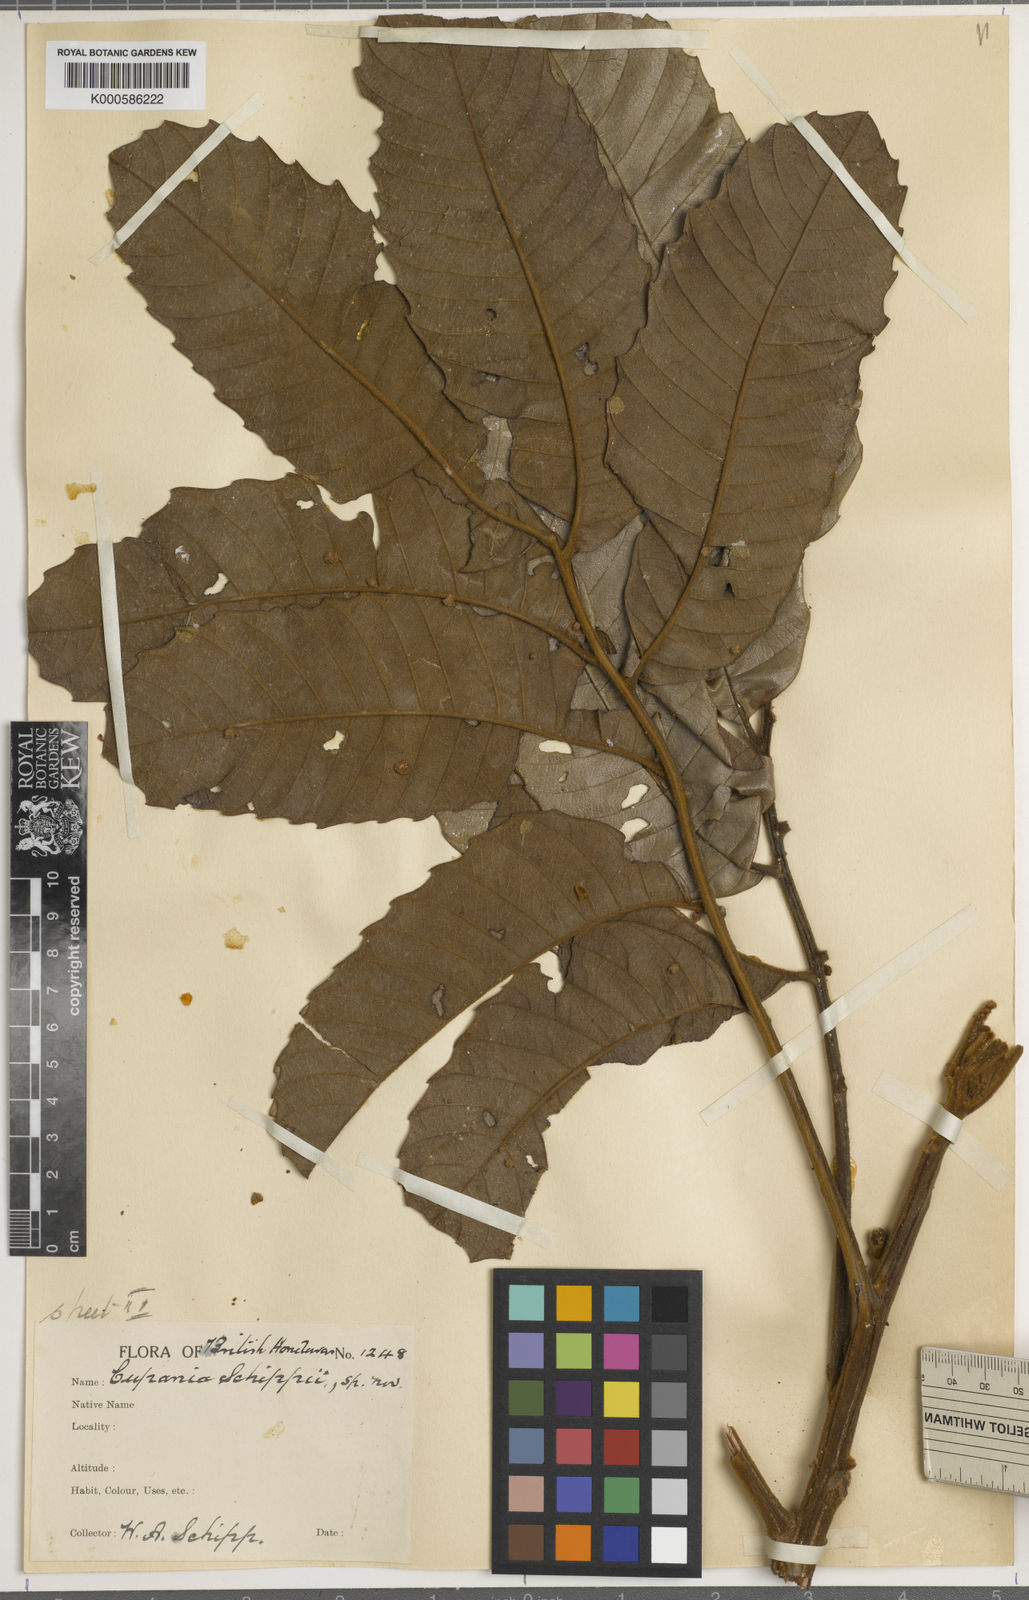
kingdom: Plantae
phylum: Tracheophyta
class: Magnoliopsida
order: Sapindales
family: Sapindaceae
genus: Cupania
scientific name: Cupania spectabilis
